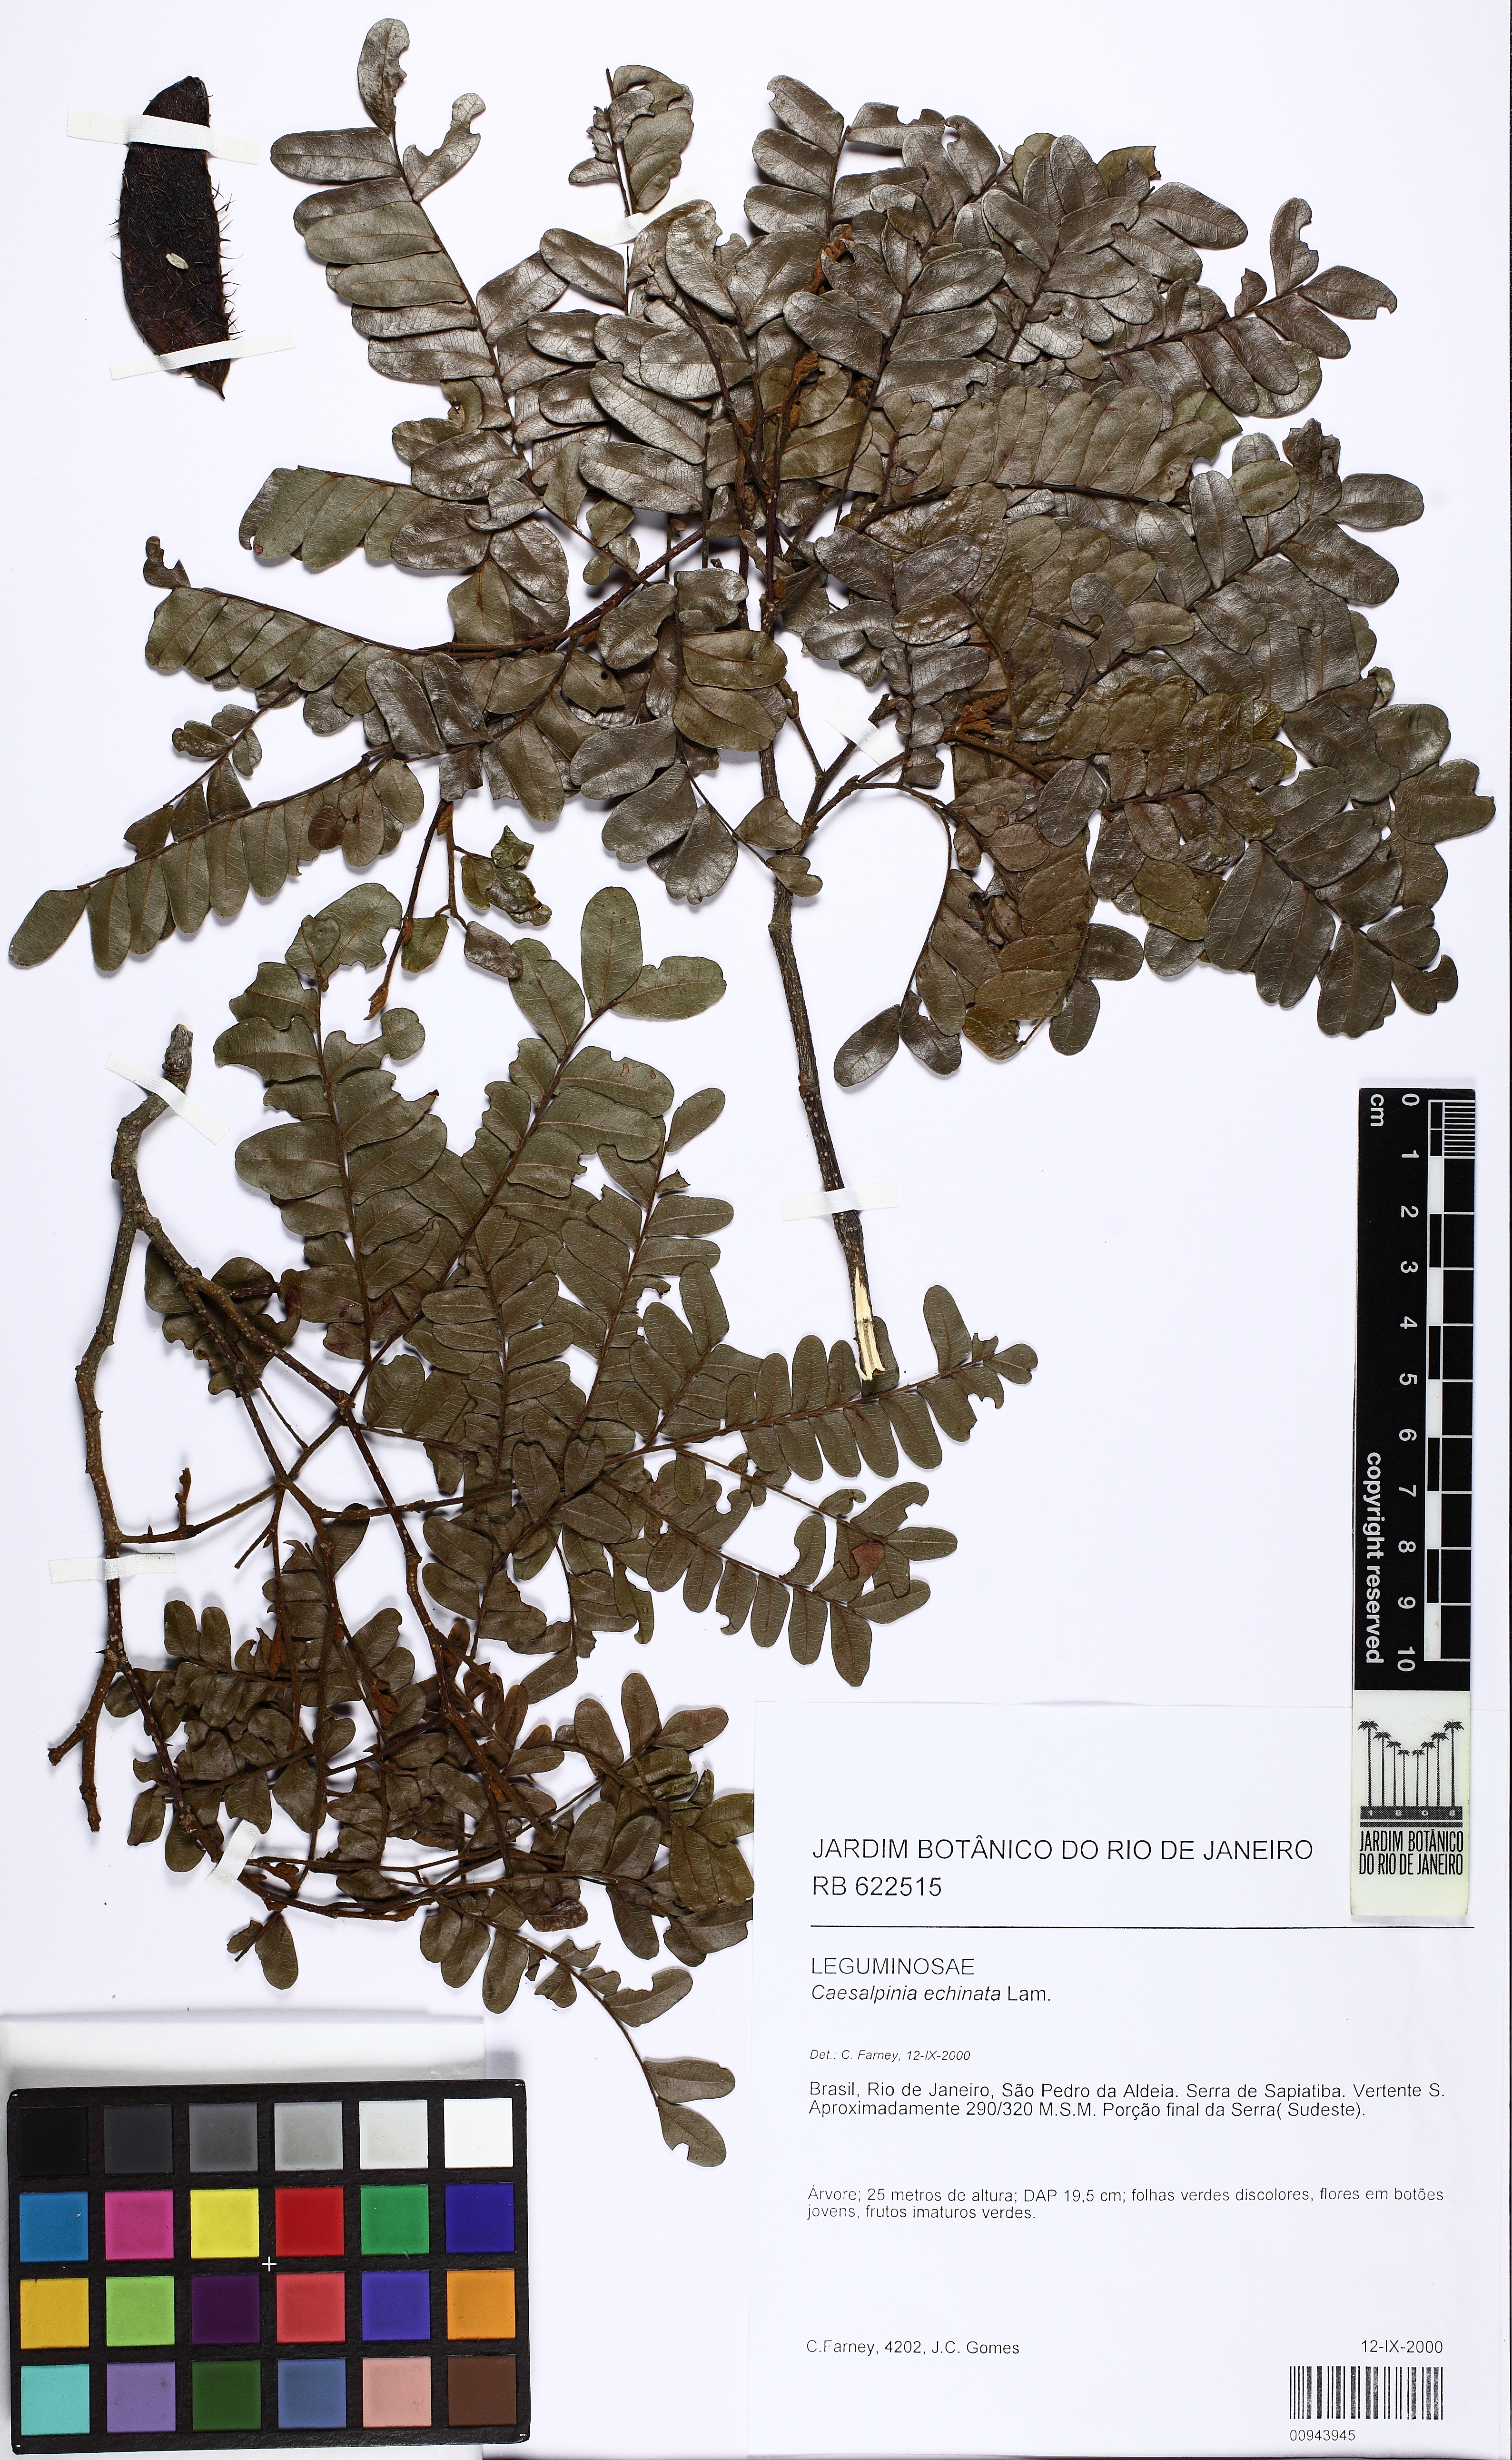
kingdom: Plantae
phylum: Tracheophyta
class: Magnoliopsida
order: Fabales
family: Fabaceae
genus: Paubrasilia
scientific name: Paubrasilia echinata
